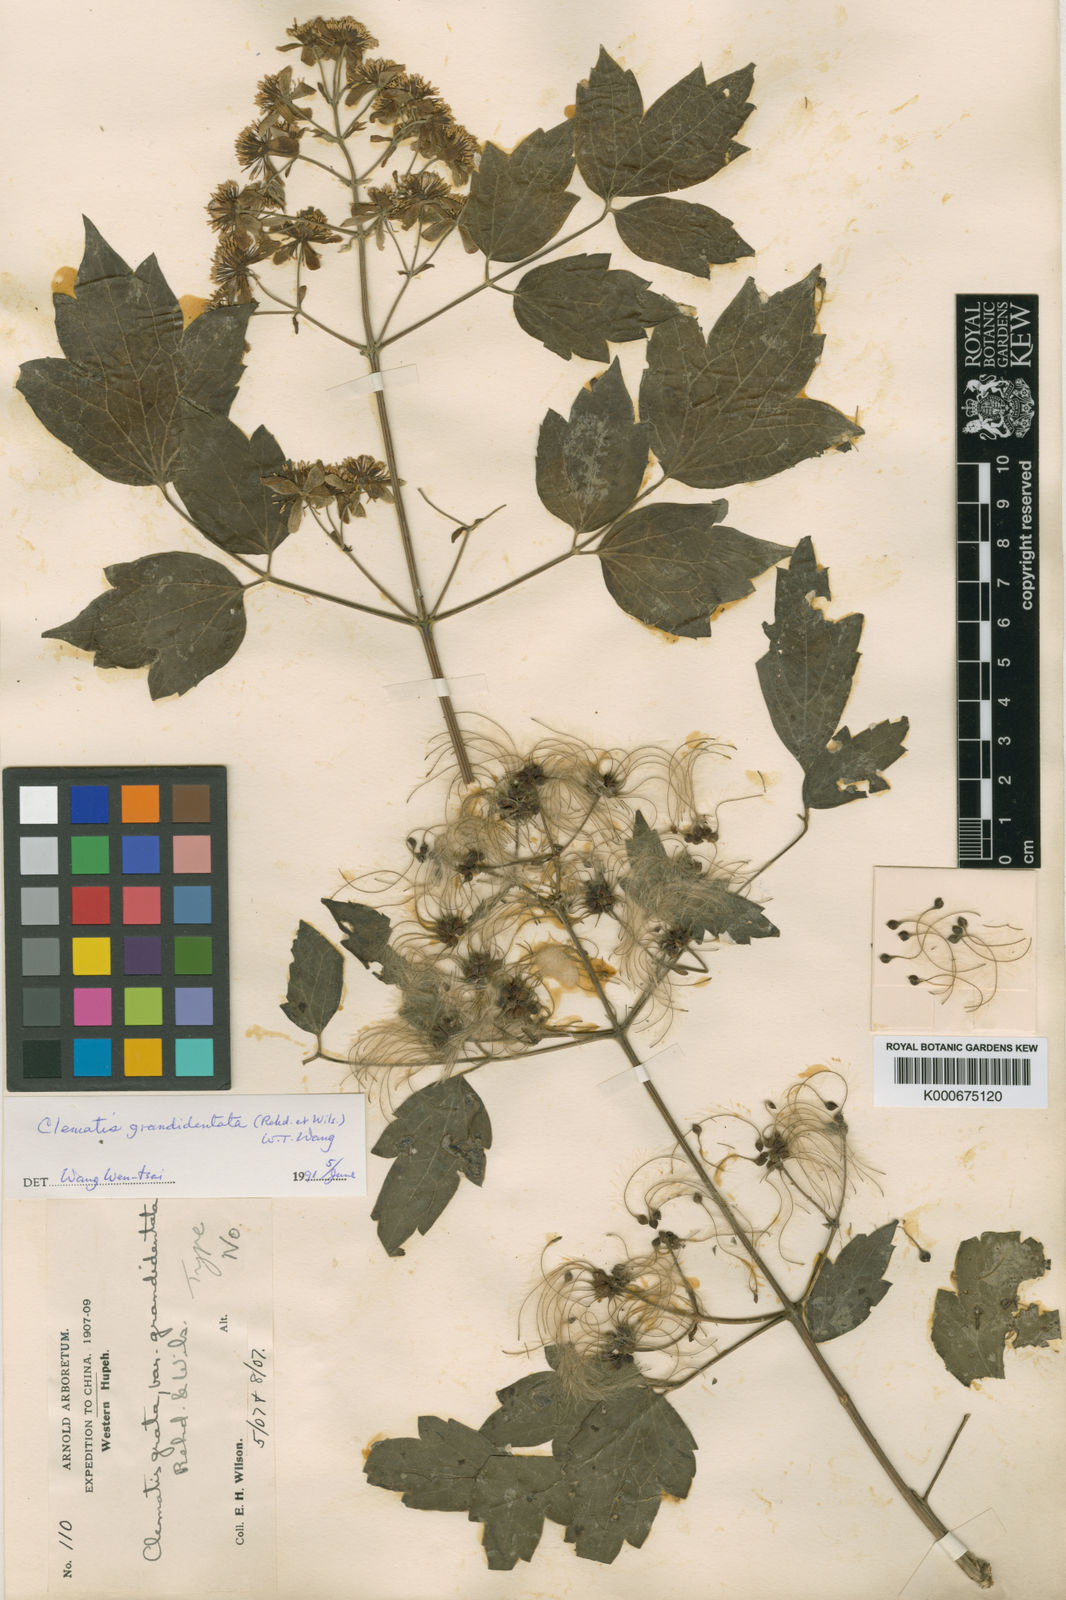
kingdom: Plantae
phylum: Tracheophyta
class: Magnoliopsida
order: Ranunculales
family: Ranunculaceae
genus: Clematis
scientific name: Clematis grandidentata
